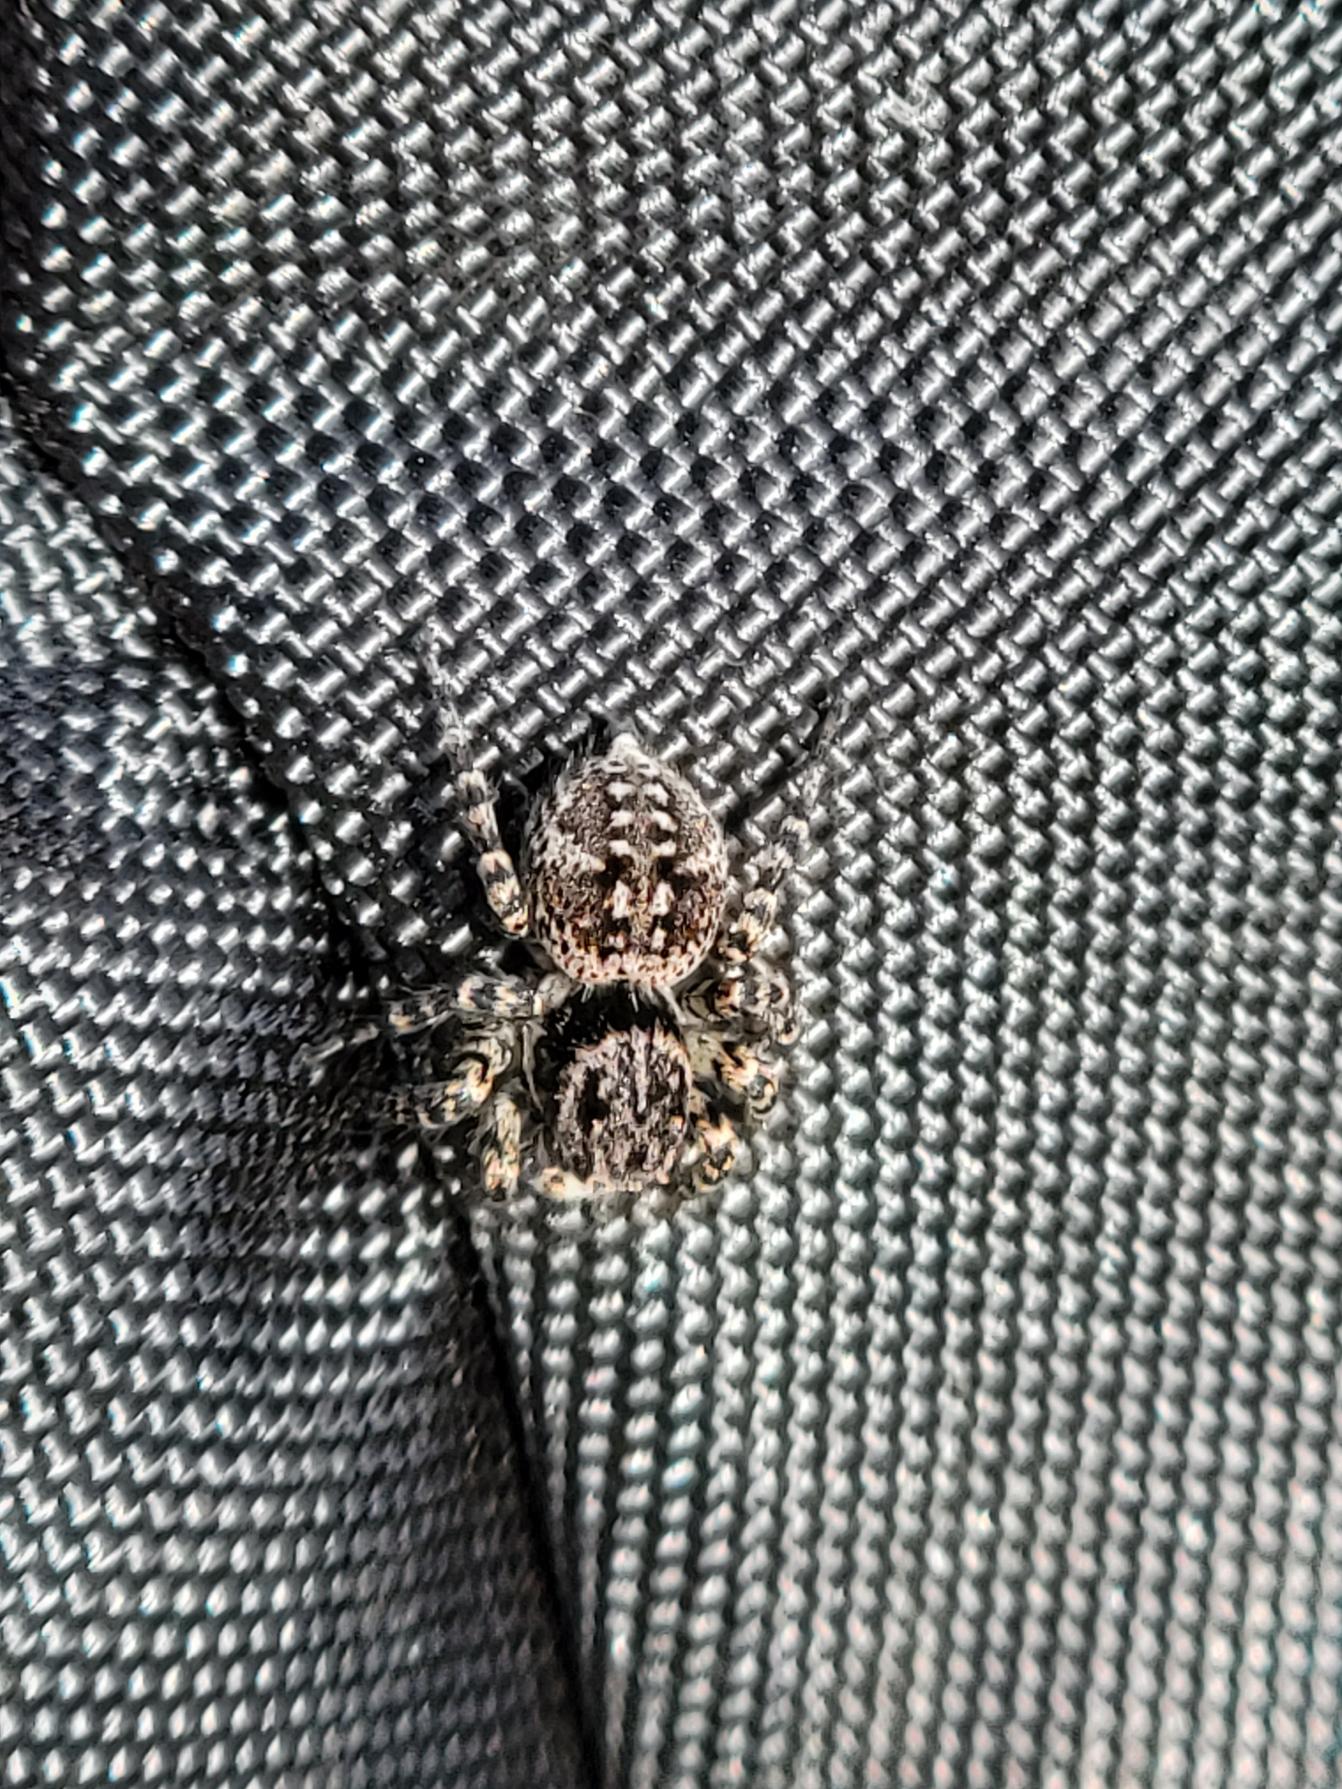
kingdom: Animalia
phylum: Arthropoda
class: Arachnida
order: Araneae
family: Salticidae
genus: Aelurillus
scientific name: Aelurillus v-insignitus
